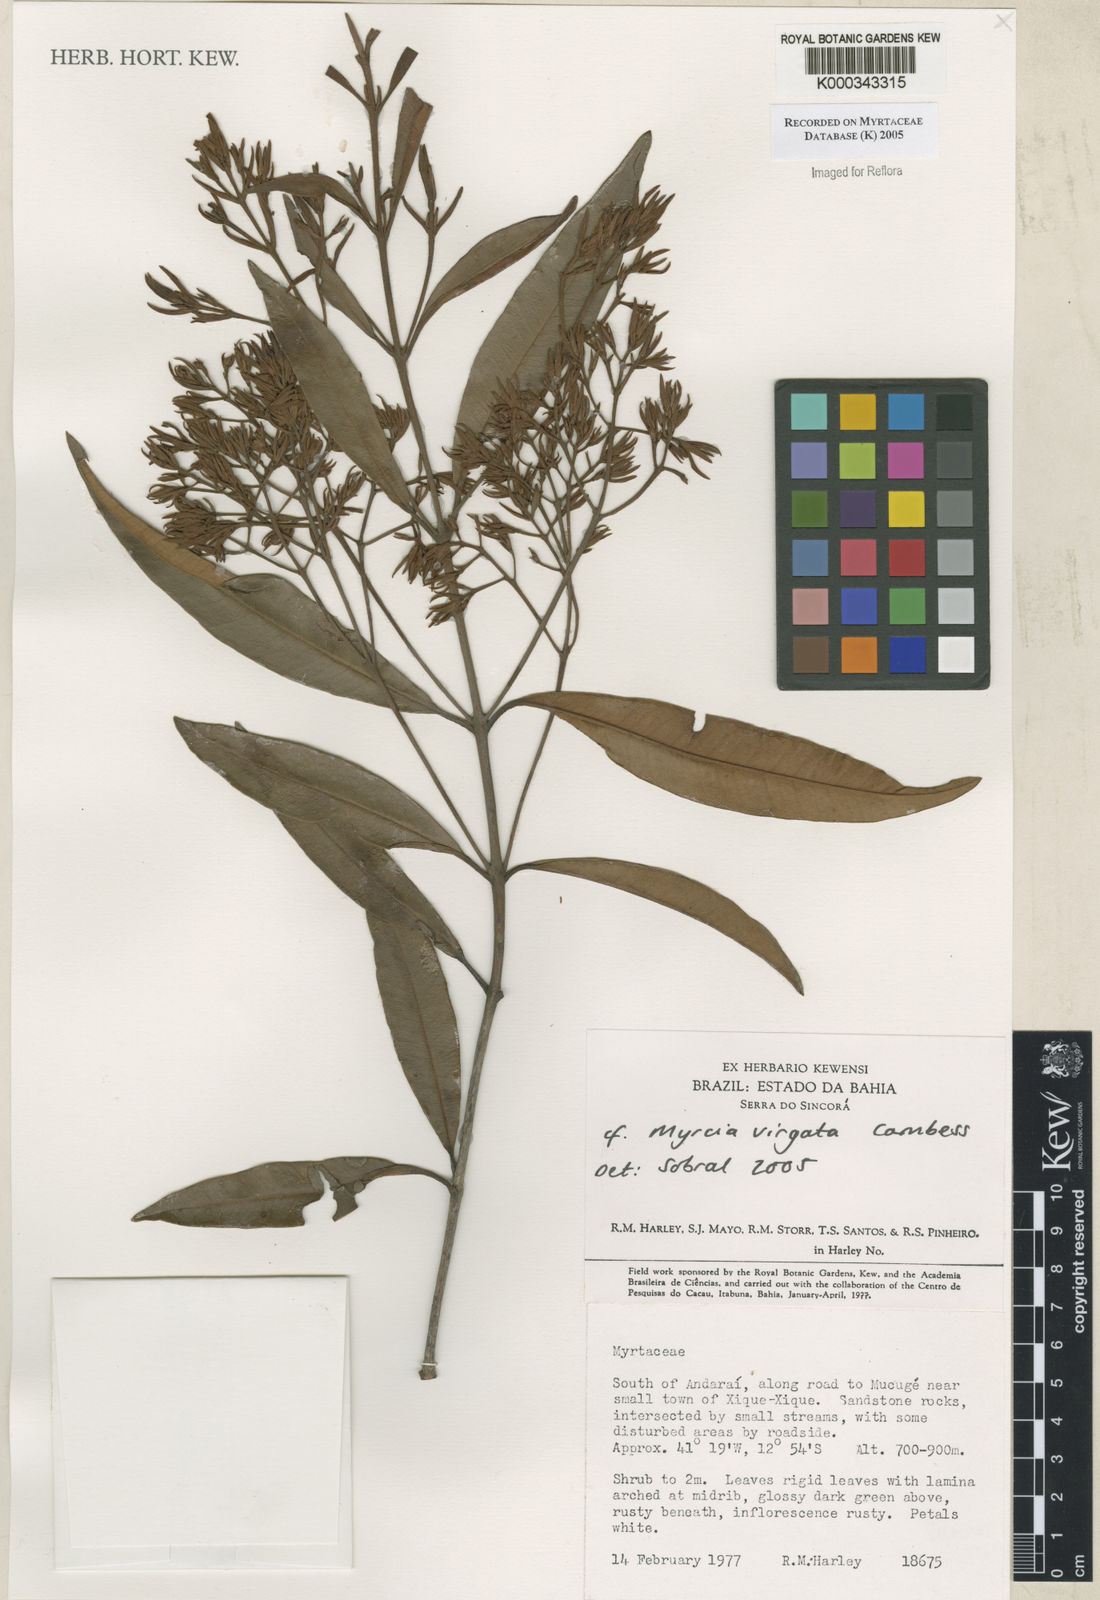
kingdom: Plantae
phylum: Tracheophyta
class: Magnoliopsida
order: Myrtales
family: Myrtaceae
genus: Myrcia
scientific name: Myrcia virgata
